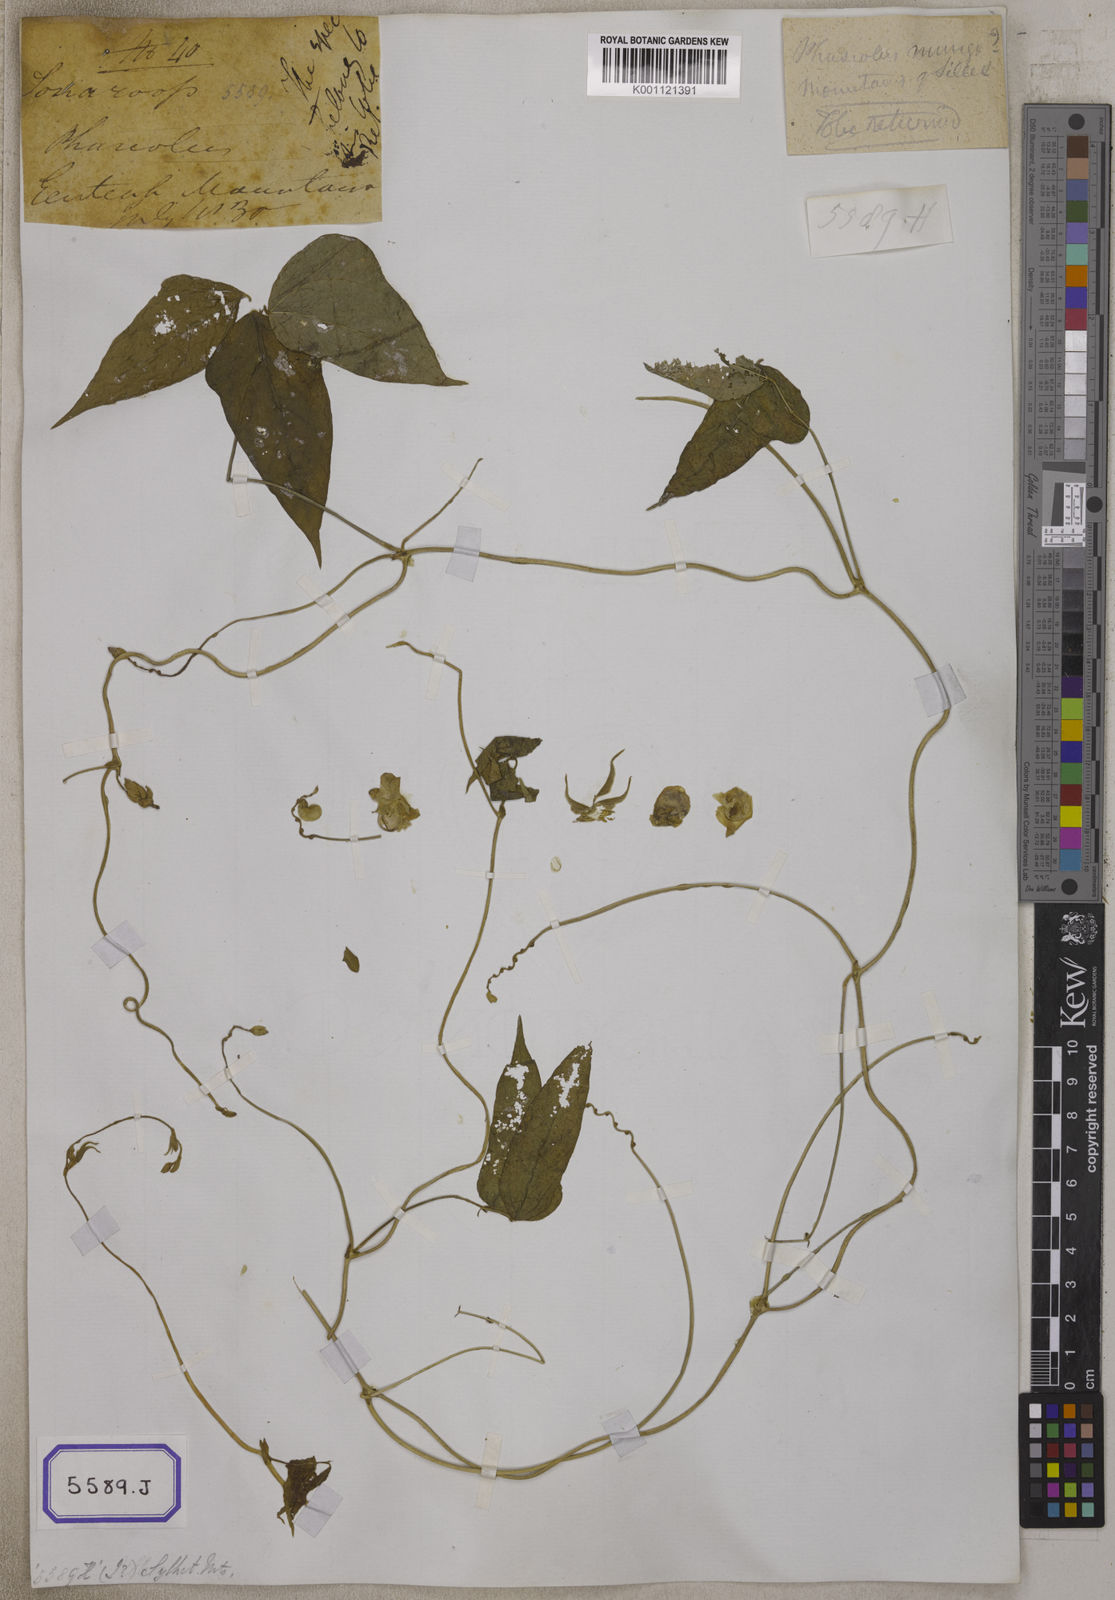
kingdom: Plantae
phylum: Tracheophyta
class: Magnoliopsida
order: Fabales
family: Fabaceae
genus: Phaseolus
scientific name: Phaseolus
